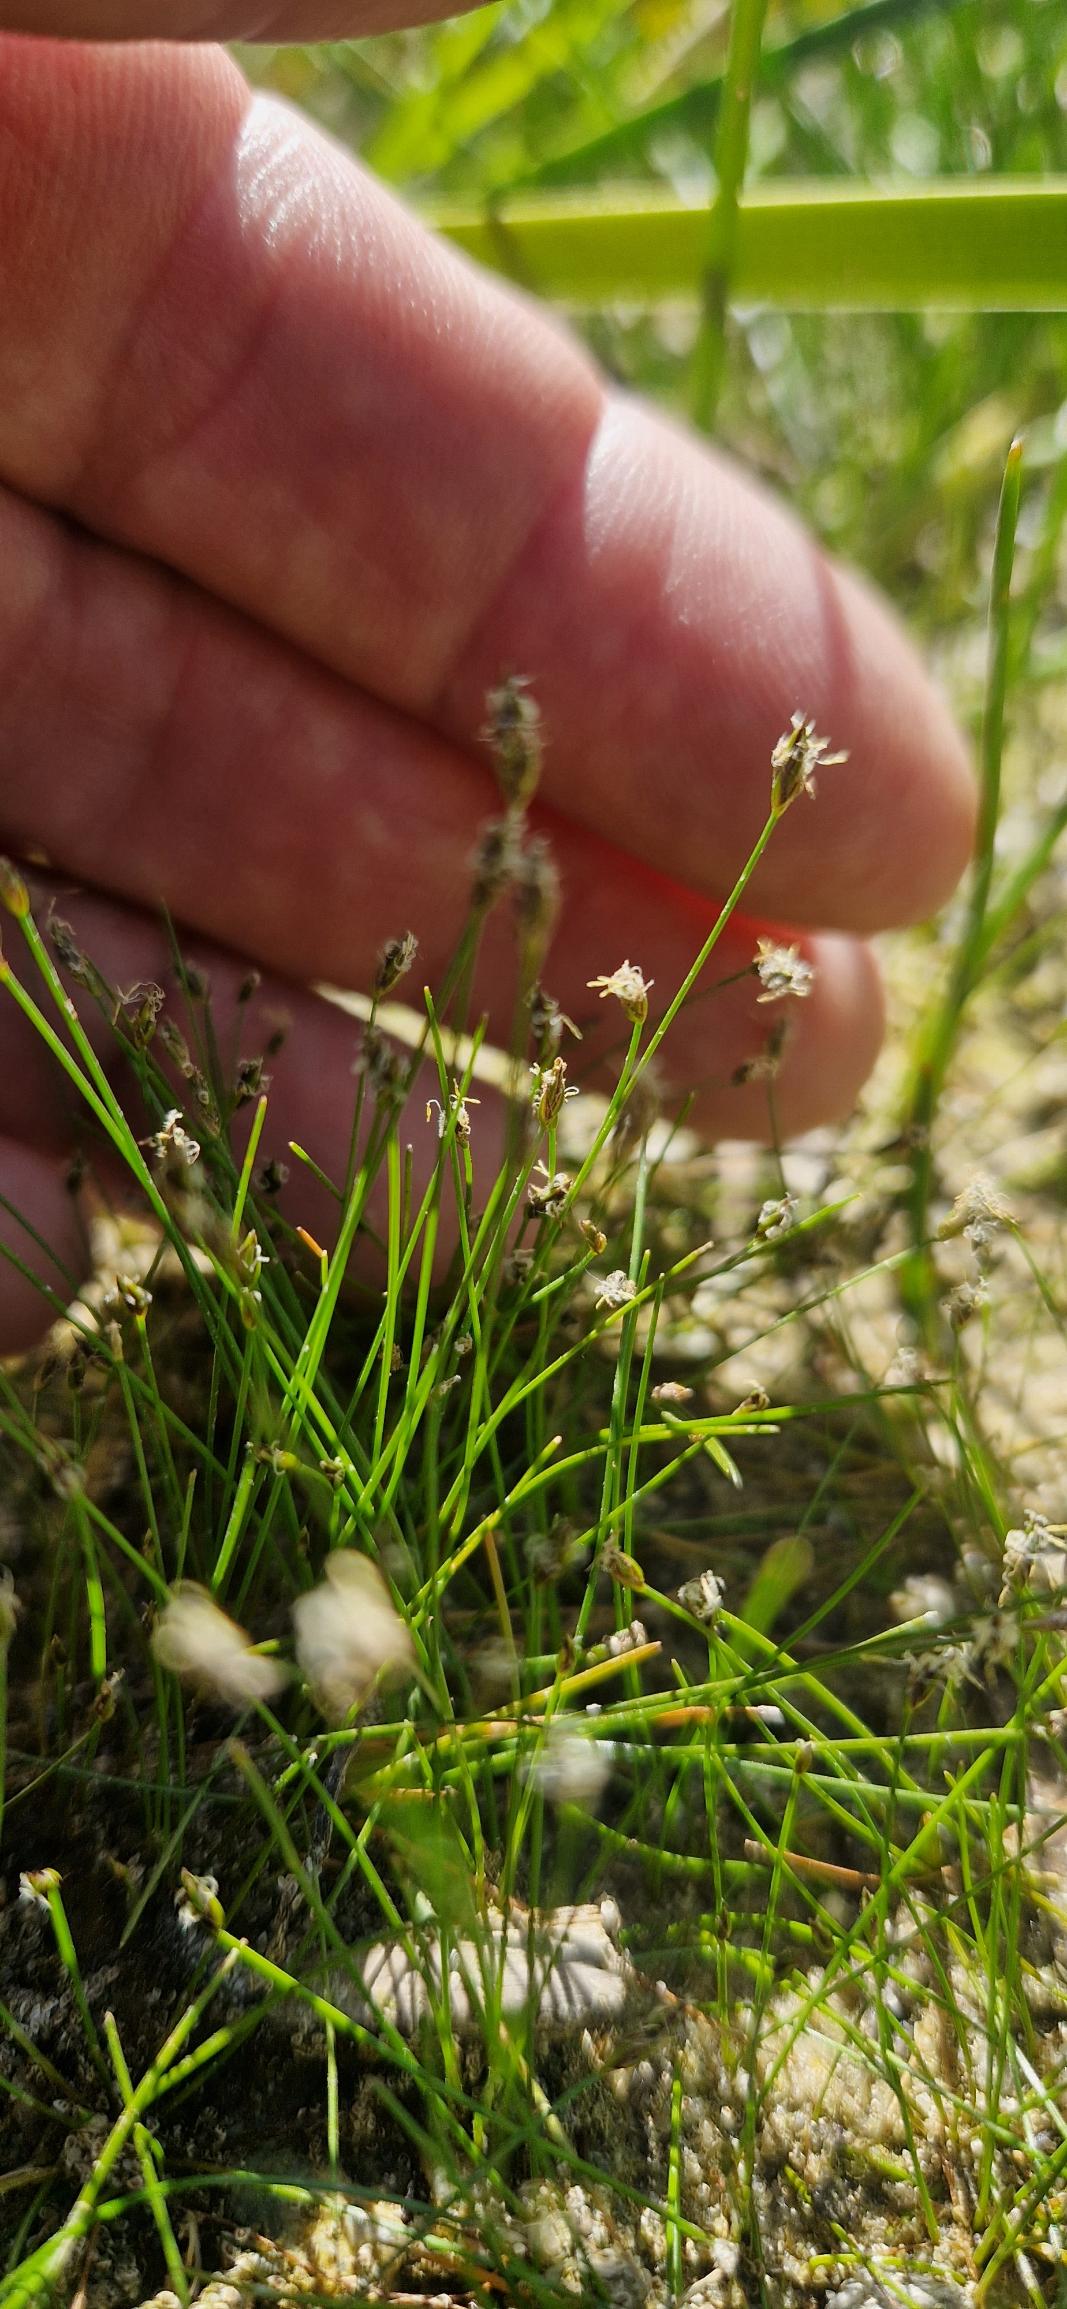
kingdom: Plantae
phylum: Tracheophyta
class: Liliopsida
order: Poales
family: Cyperaceae
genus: Eleocharis
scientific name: Eleocharis acicularis
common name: Nåle-sumpstrå
